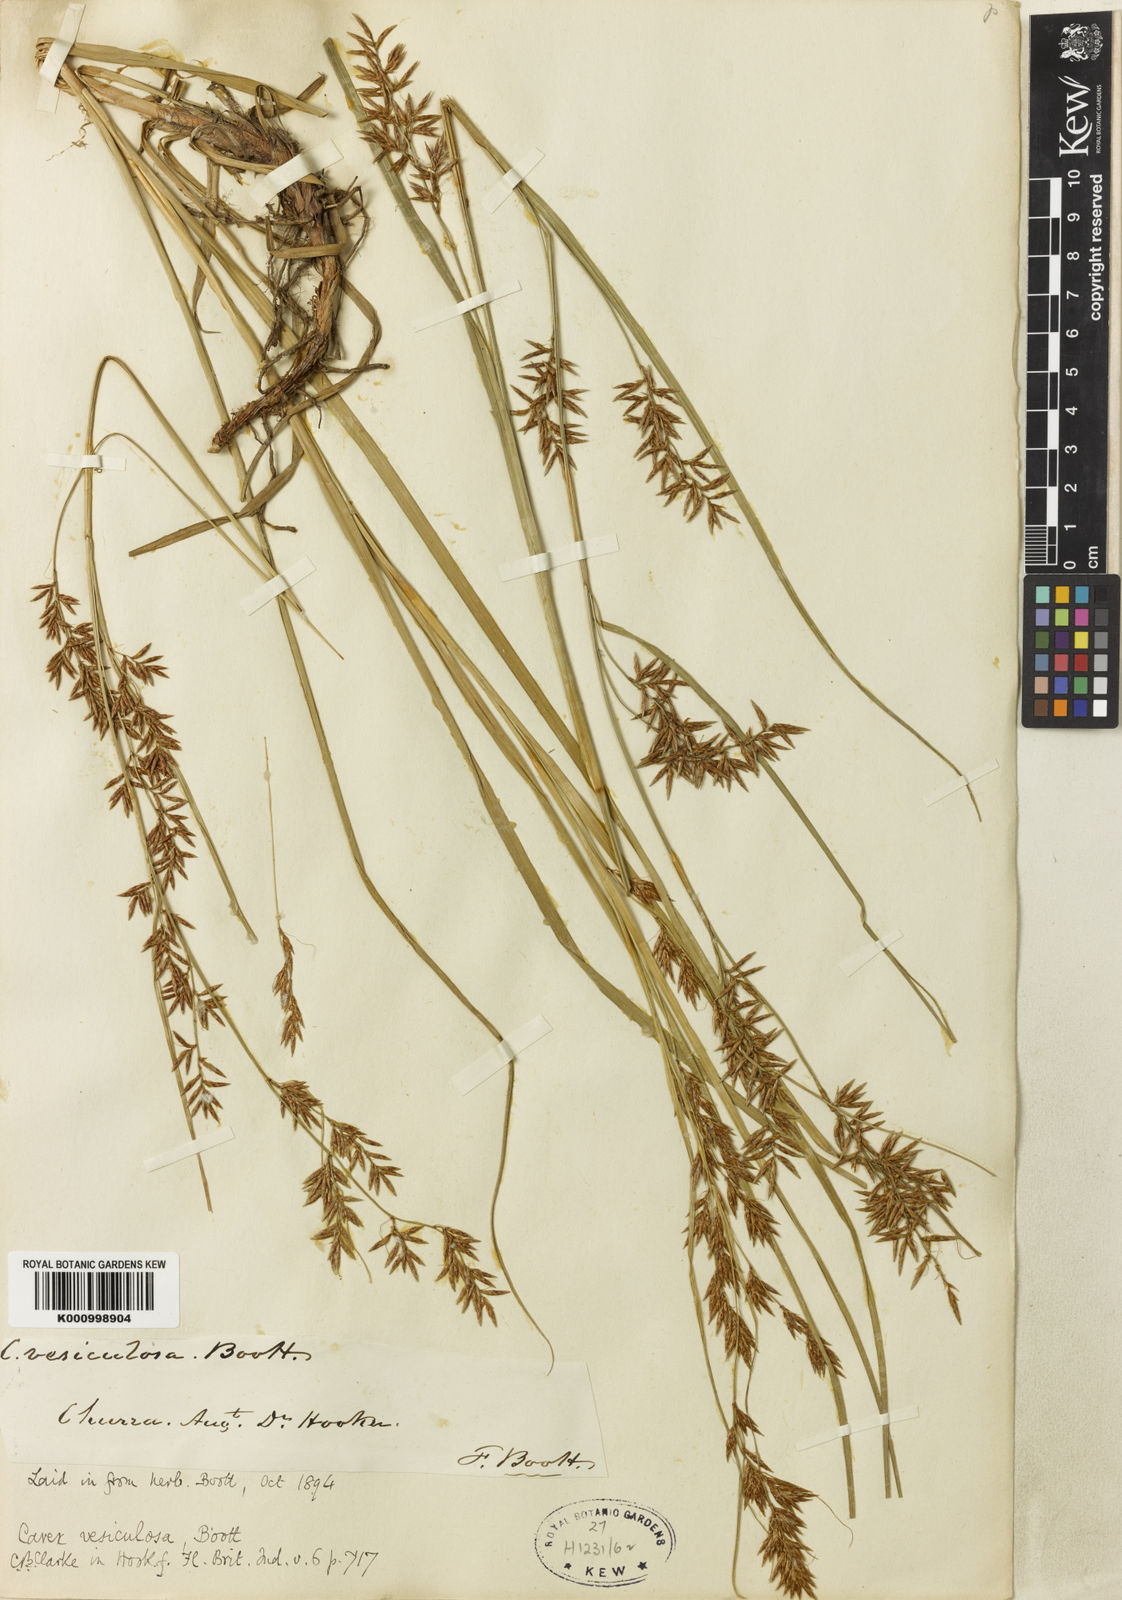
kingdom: Plantae
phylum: Tracheophyta
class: Liliopsida
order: Poales
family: Cyperaceae
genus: Carex
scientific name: Carex vesiculosa
